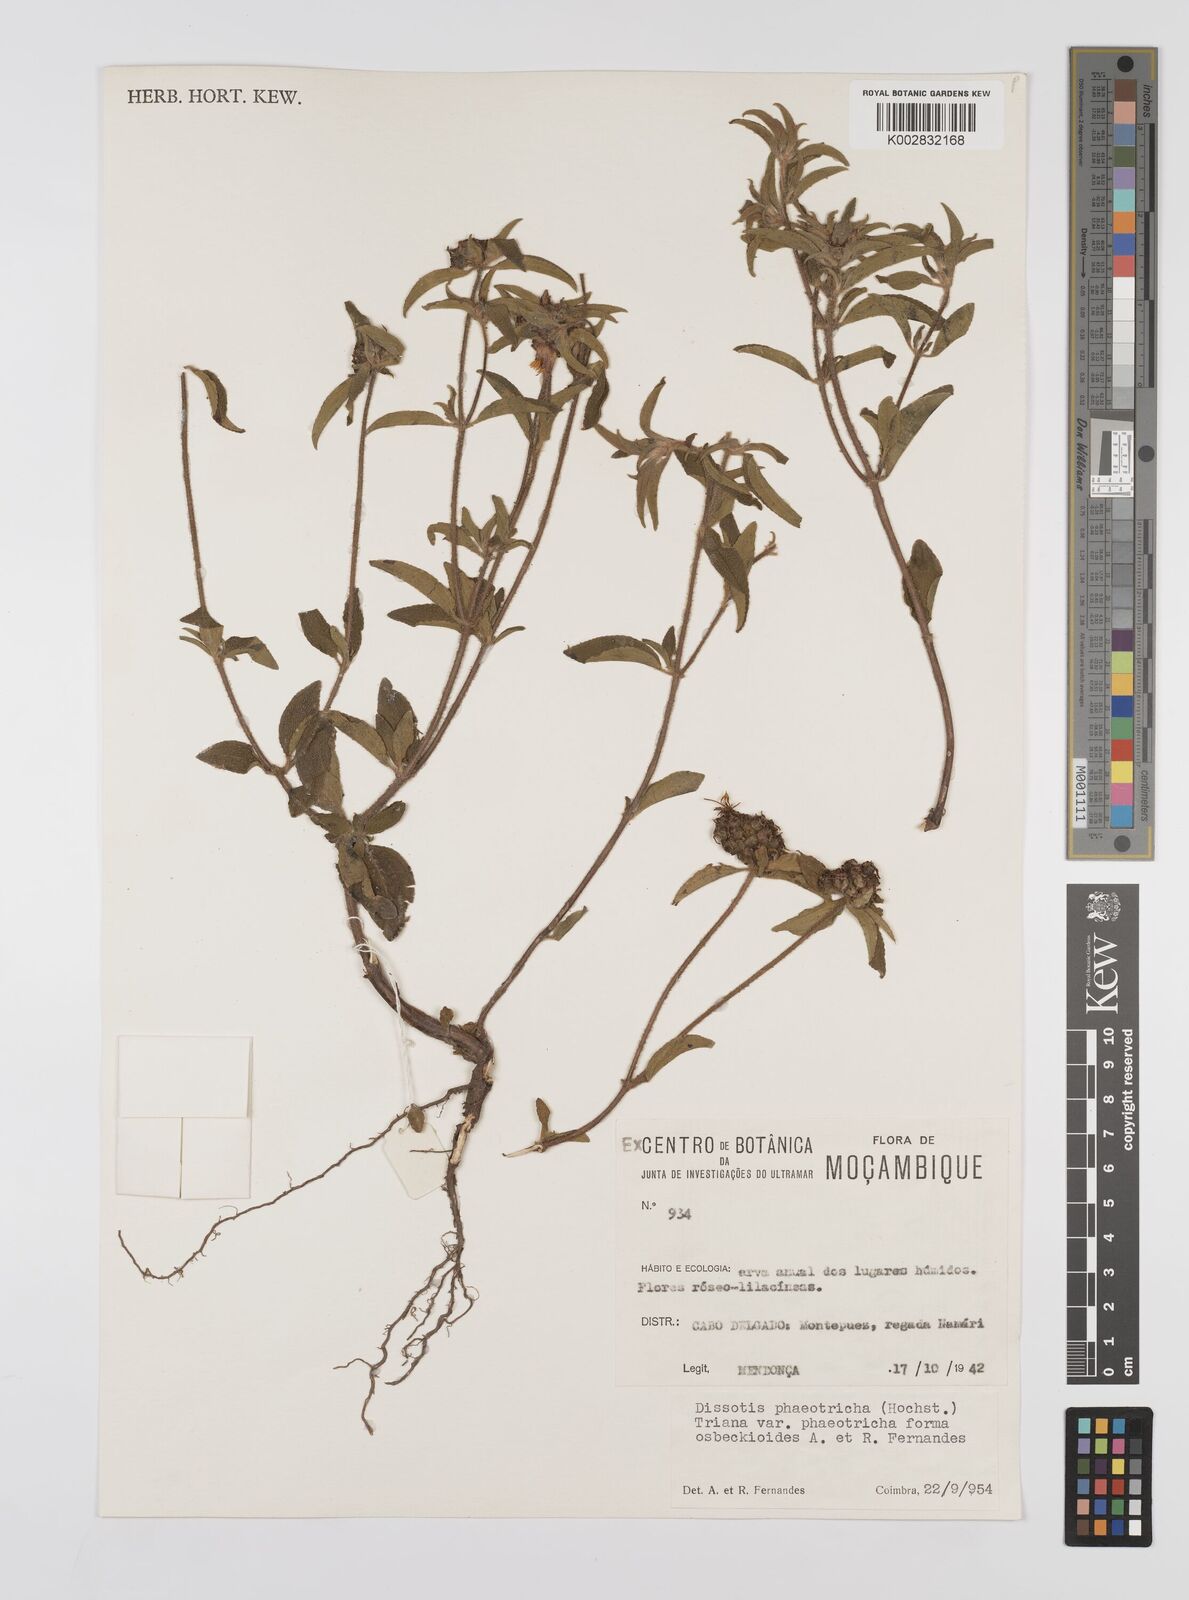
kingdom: Plantae
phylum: Tracheophyta
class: Magnoliopsida
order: Myrtales
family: Melastomataceae
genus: Antherotoma
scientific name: Antherotoma phaeotricha
